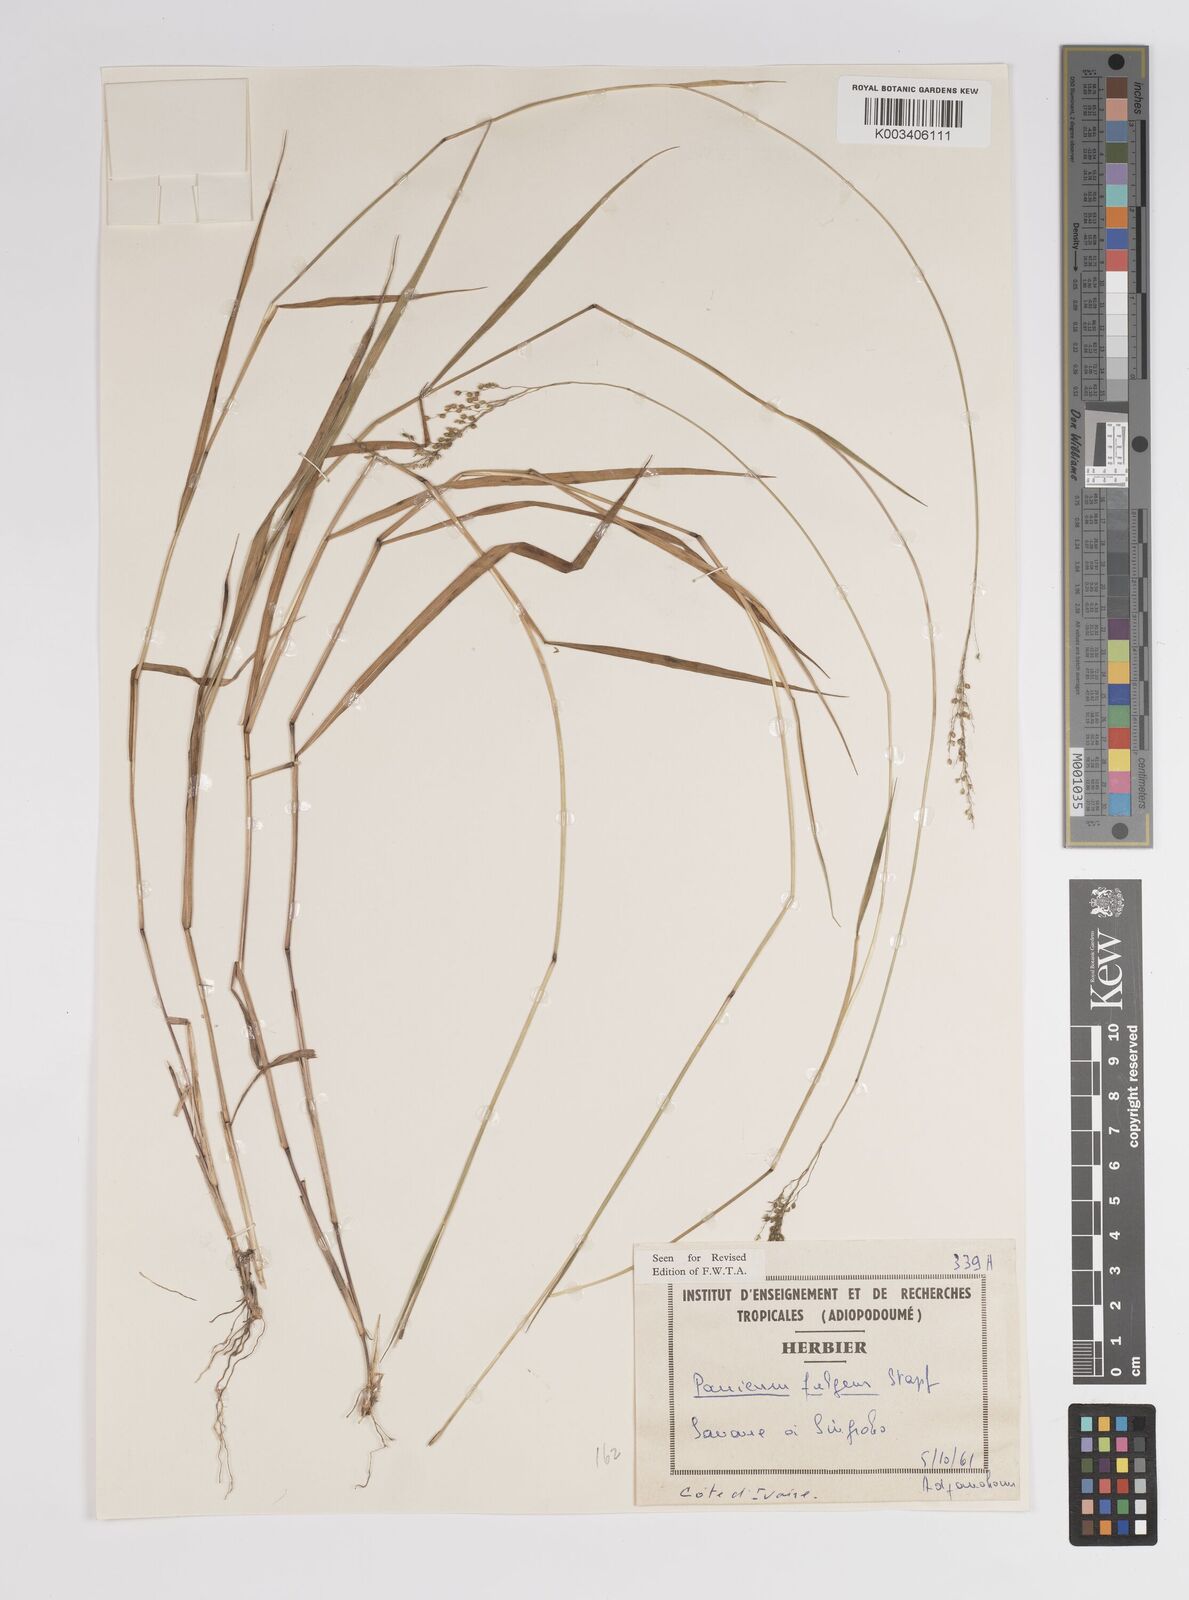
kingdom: Plantae
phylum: Tracheophyta
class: Liliopsida
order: Poales
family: Poaceae
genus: Trichanthecium
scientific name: Trichanthecium nervatum
